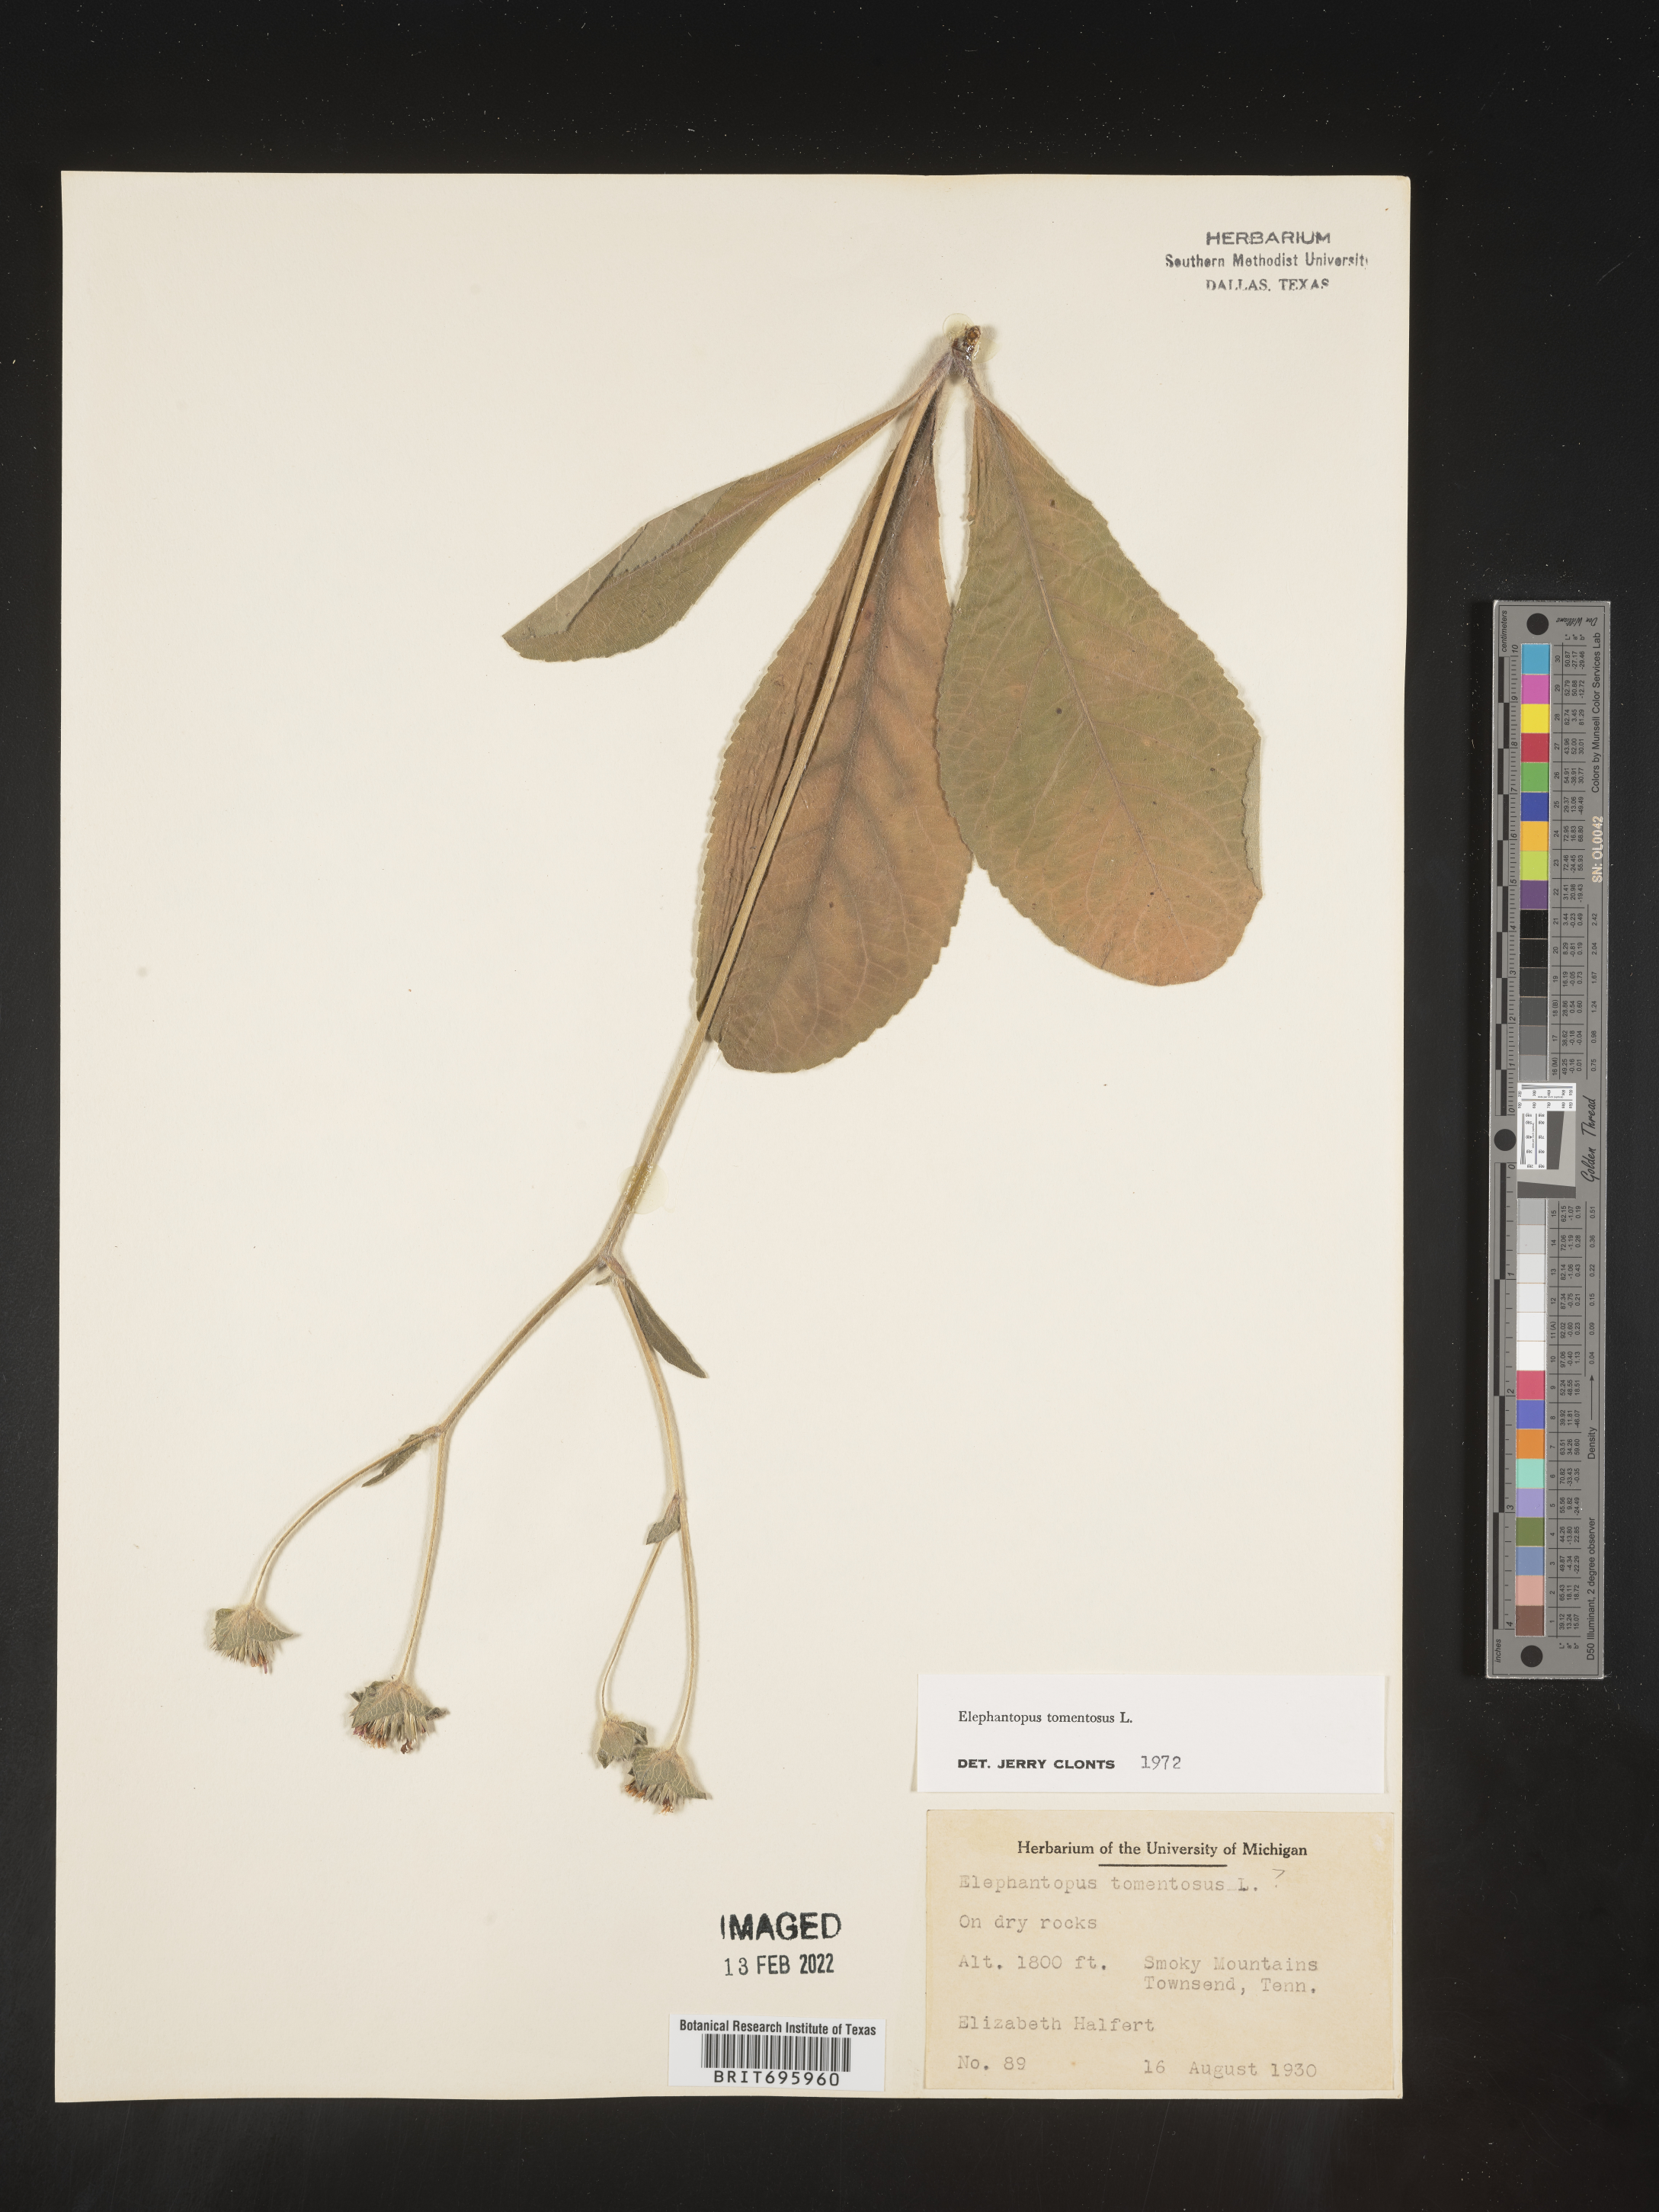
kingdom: Plantae
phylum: Tracheophyta
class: Magnoliopsida
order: Asterales
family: Asteraceae
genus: Elephantopus
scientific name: Elephantopus tomentosus
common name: Tobacco-weed
